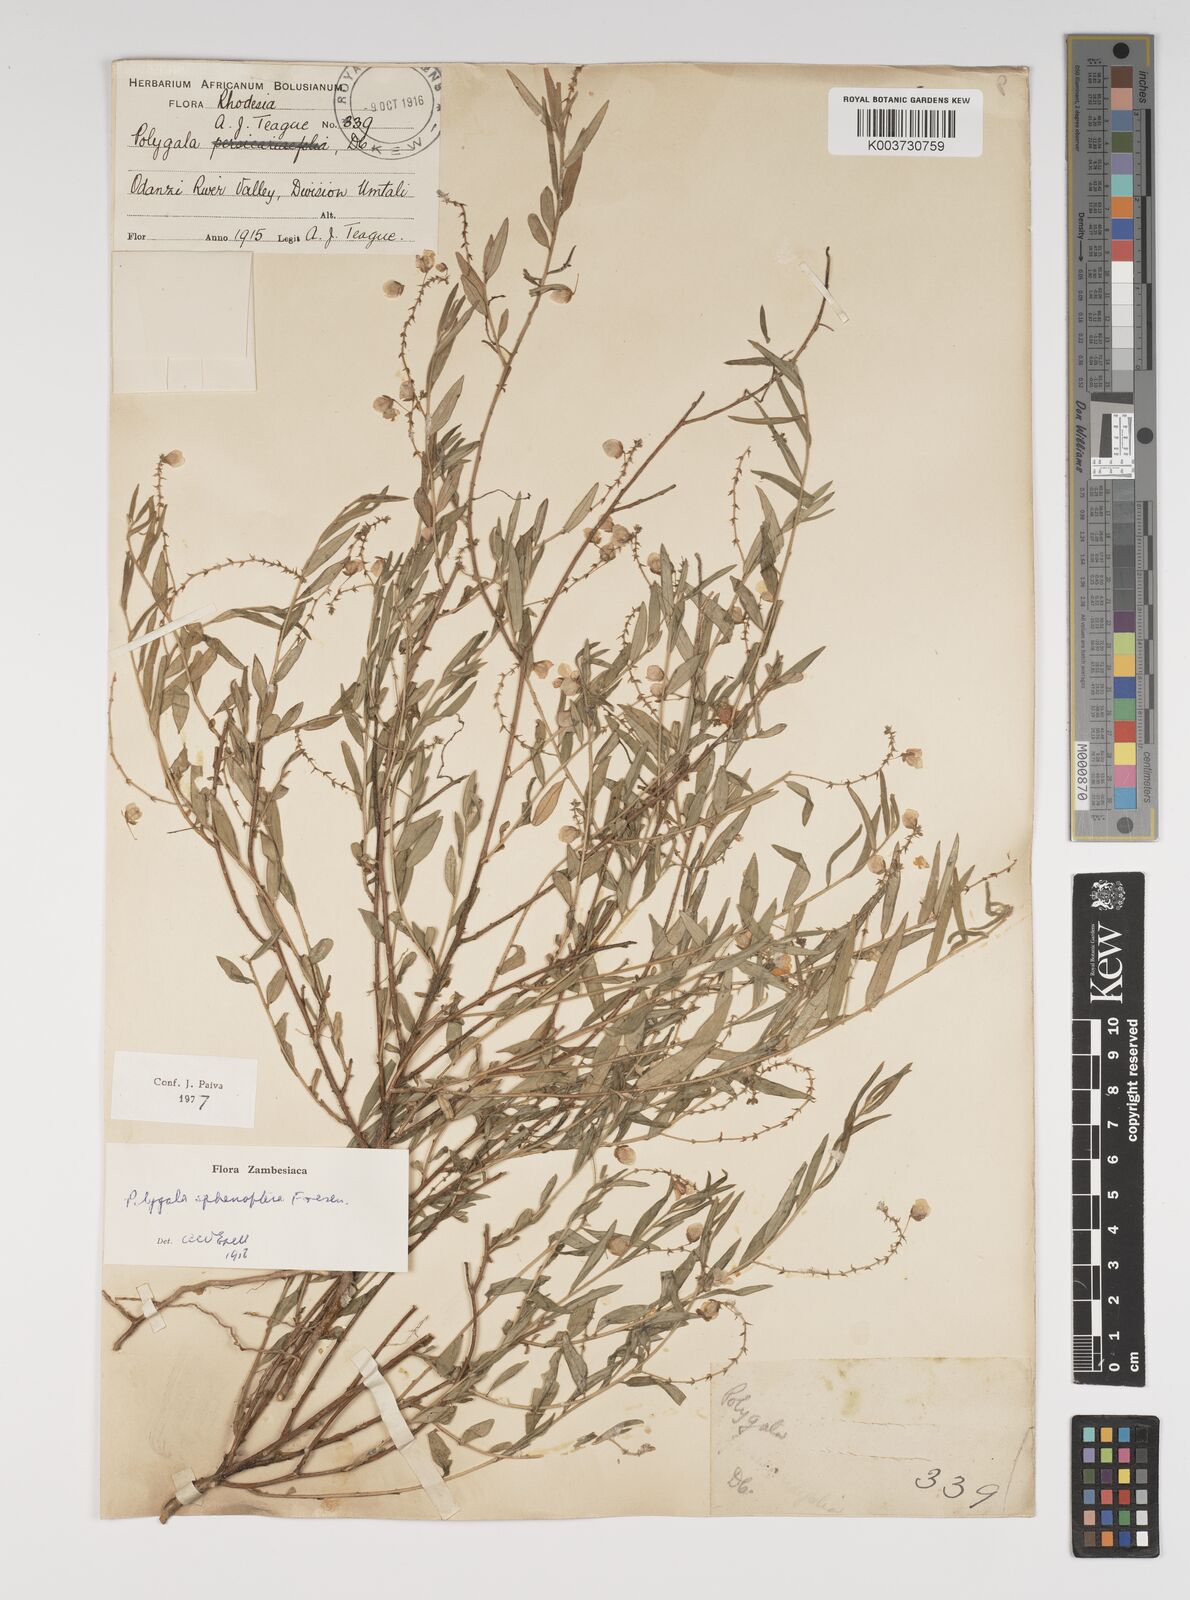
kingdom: Plantae
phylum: Tracheophyta
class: Magnoliopsida
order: Fabales
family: Polygalaceae
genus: Polygala
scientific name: Polygala sphenoptera
